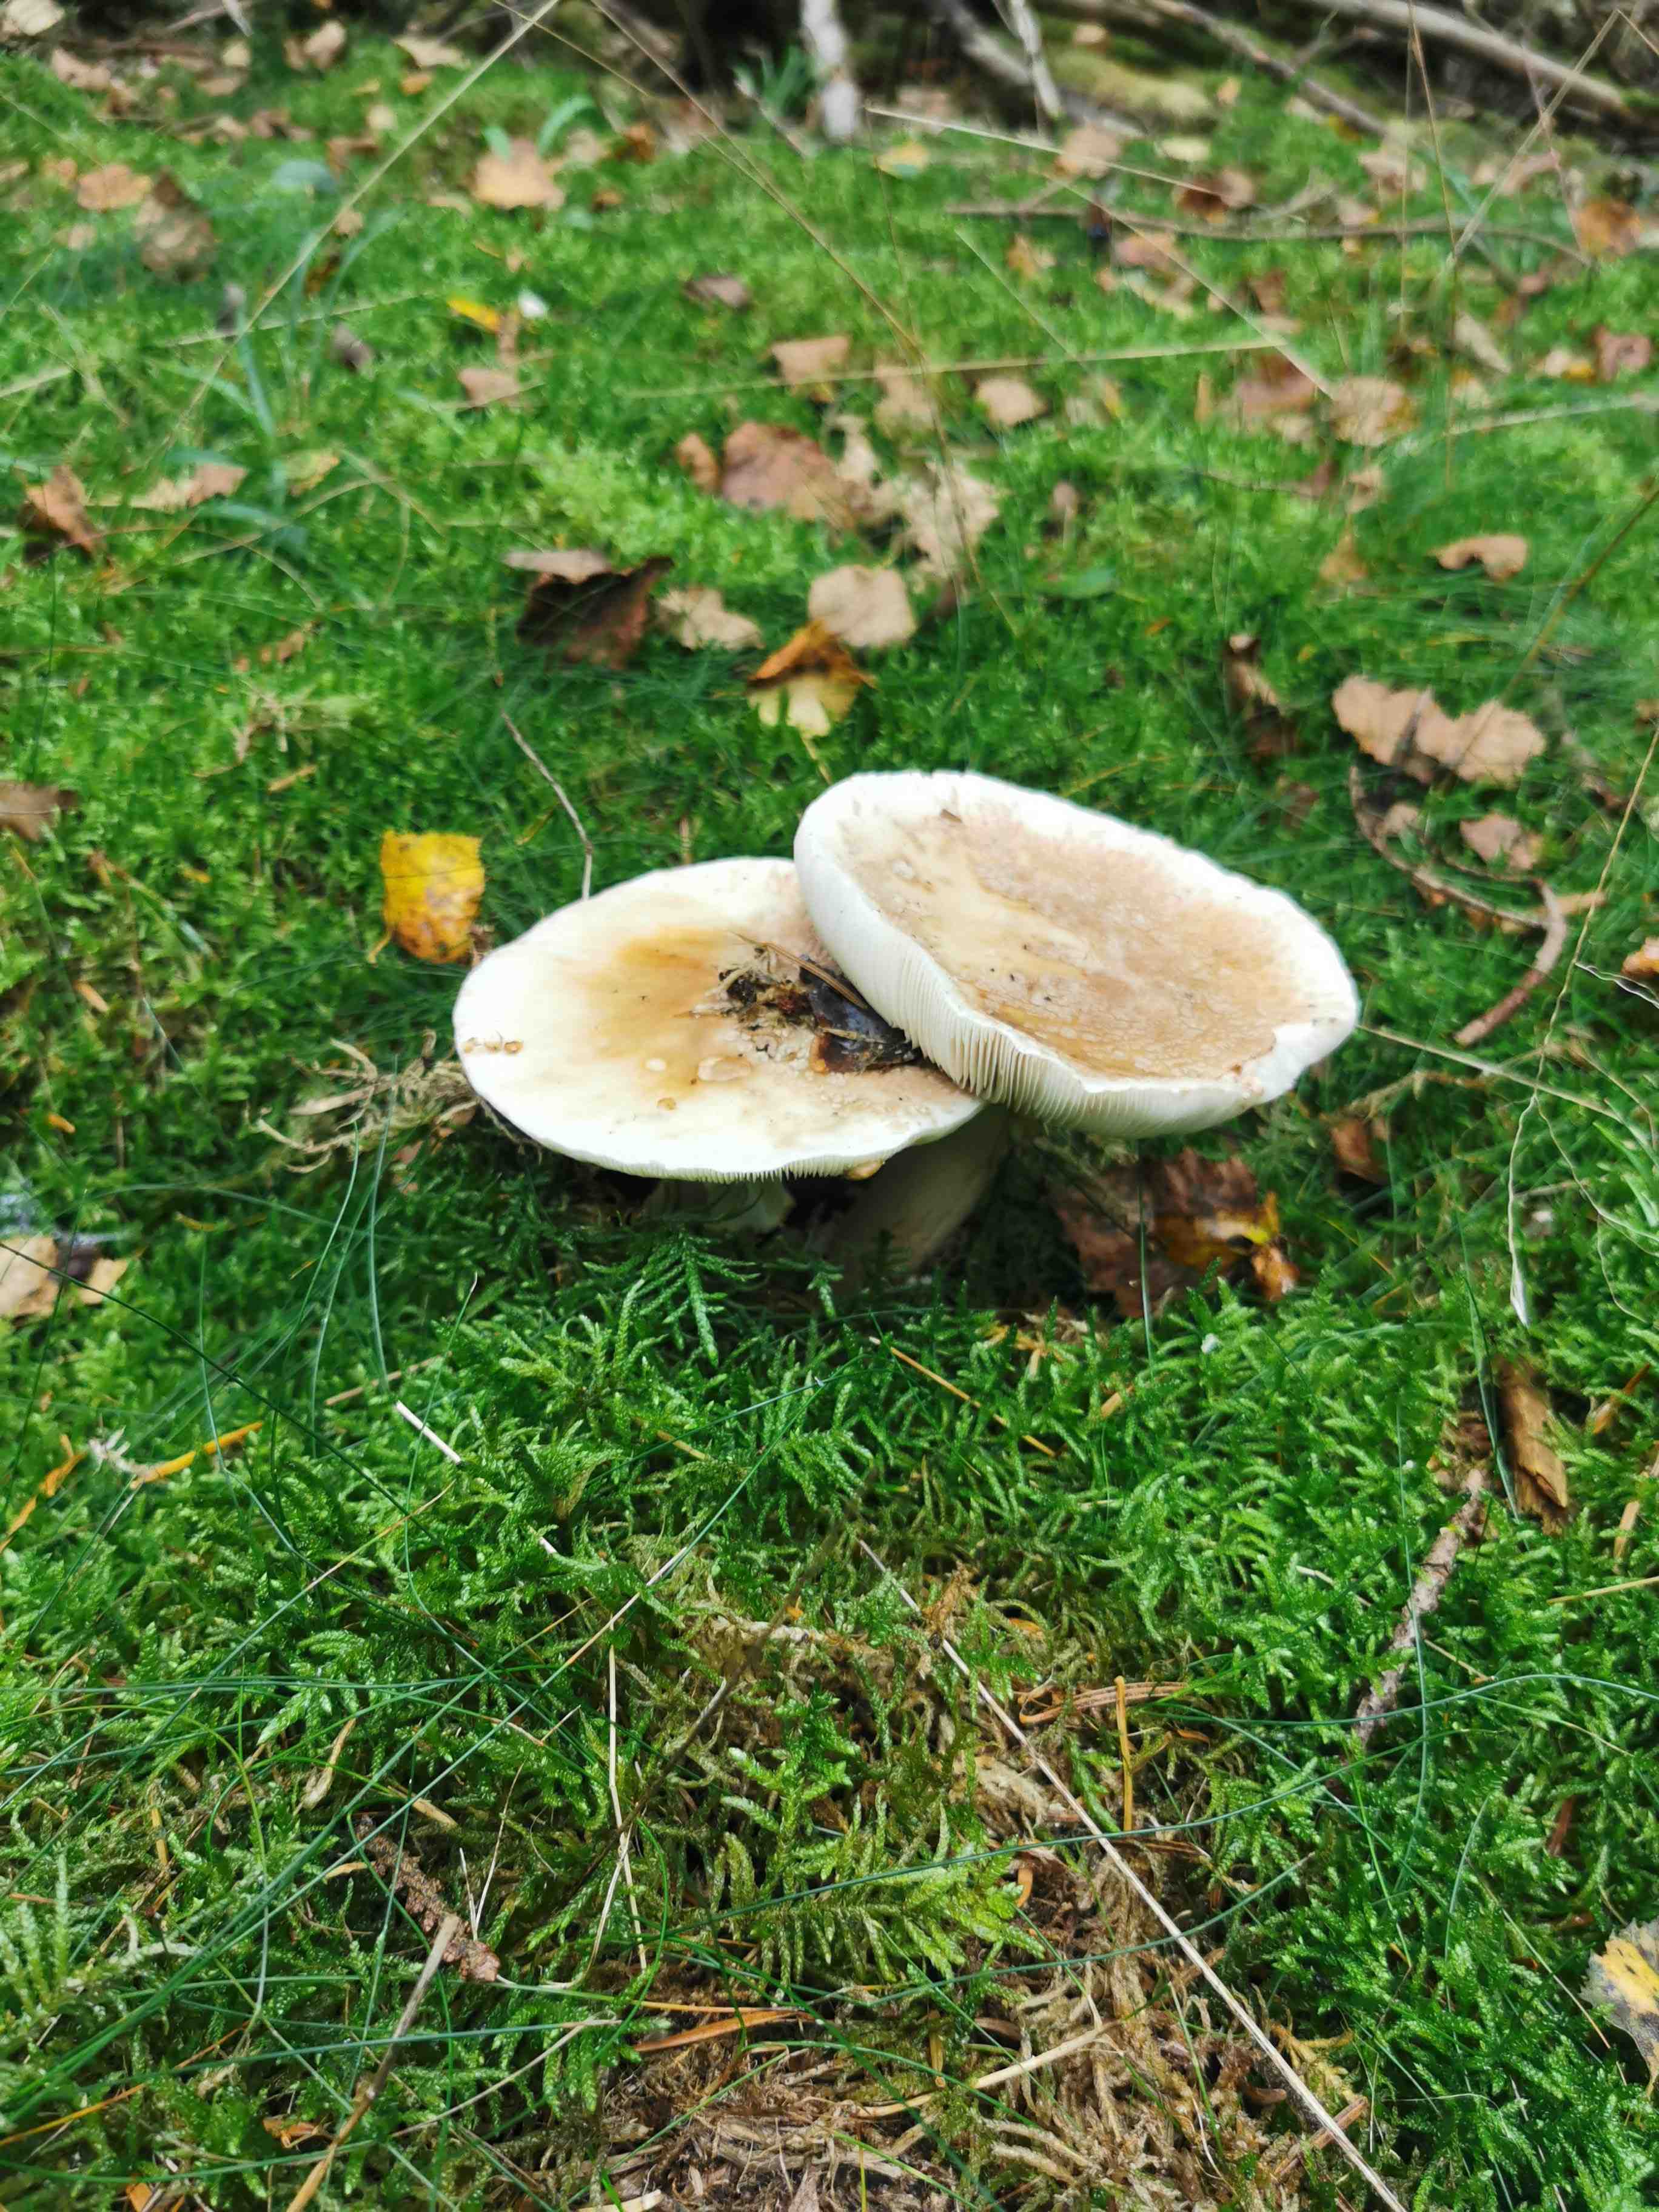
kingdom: Fungi
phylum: Basidiomycota
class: Agaricomycetes
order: Agaricales
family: Amanitaceae
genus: Amanita
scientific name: Amanita rubescens
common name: rødmende fluesvamp
